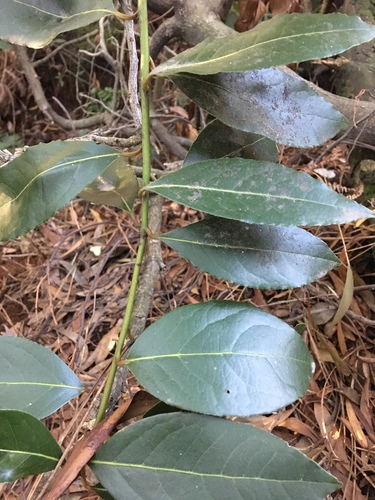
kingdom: Plantae
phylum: Tracheophyta
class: Magnoliopsida
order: Laurales
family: Lauraceae
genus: Laurus
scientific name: Laurus nobilis
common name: Bay
